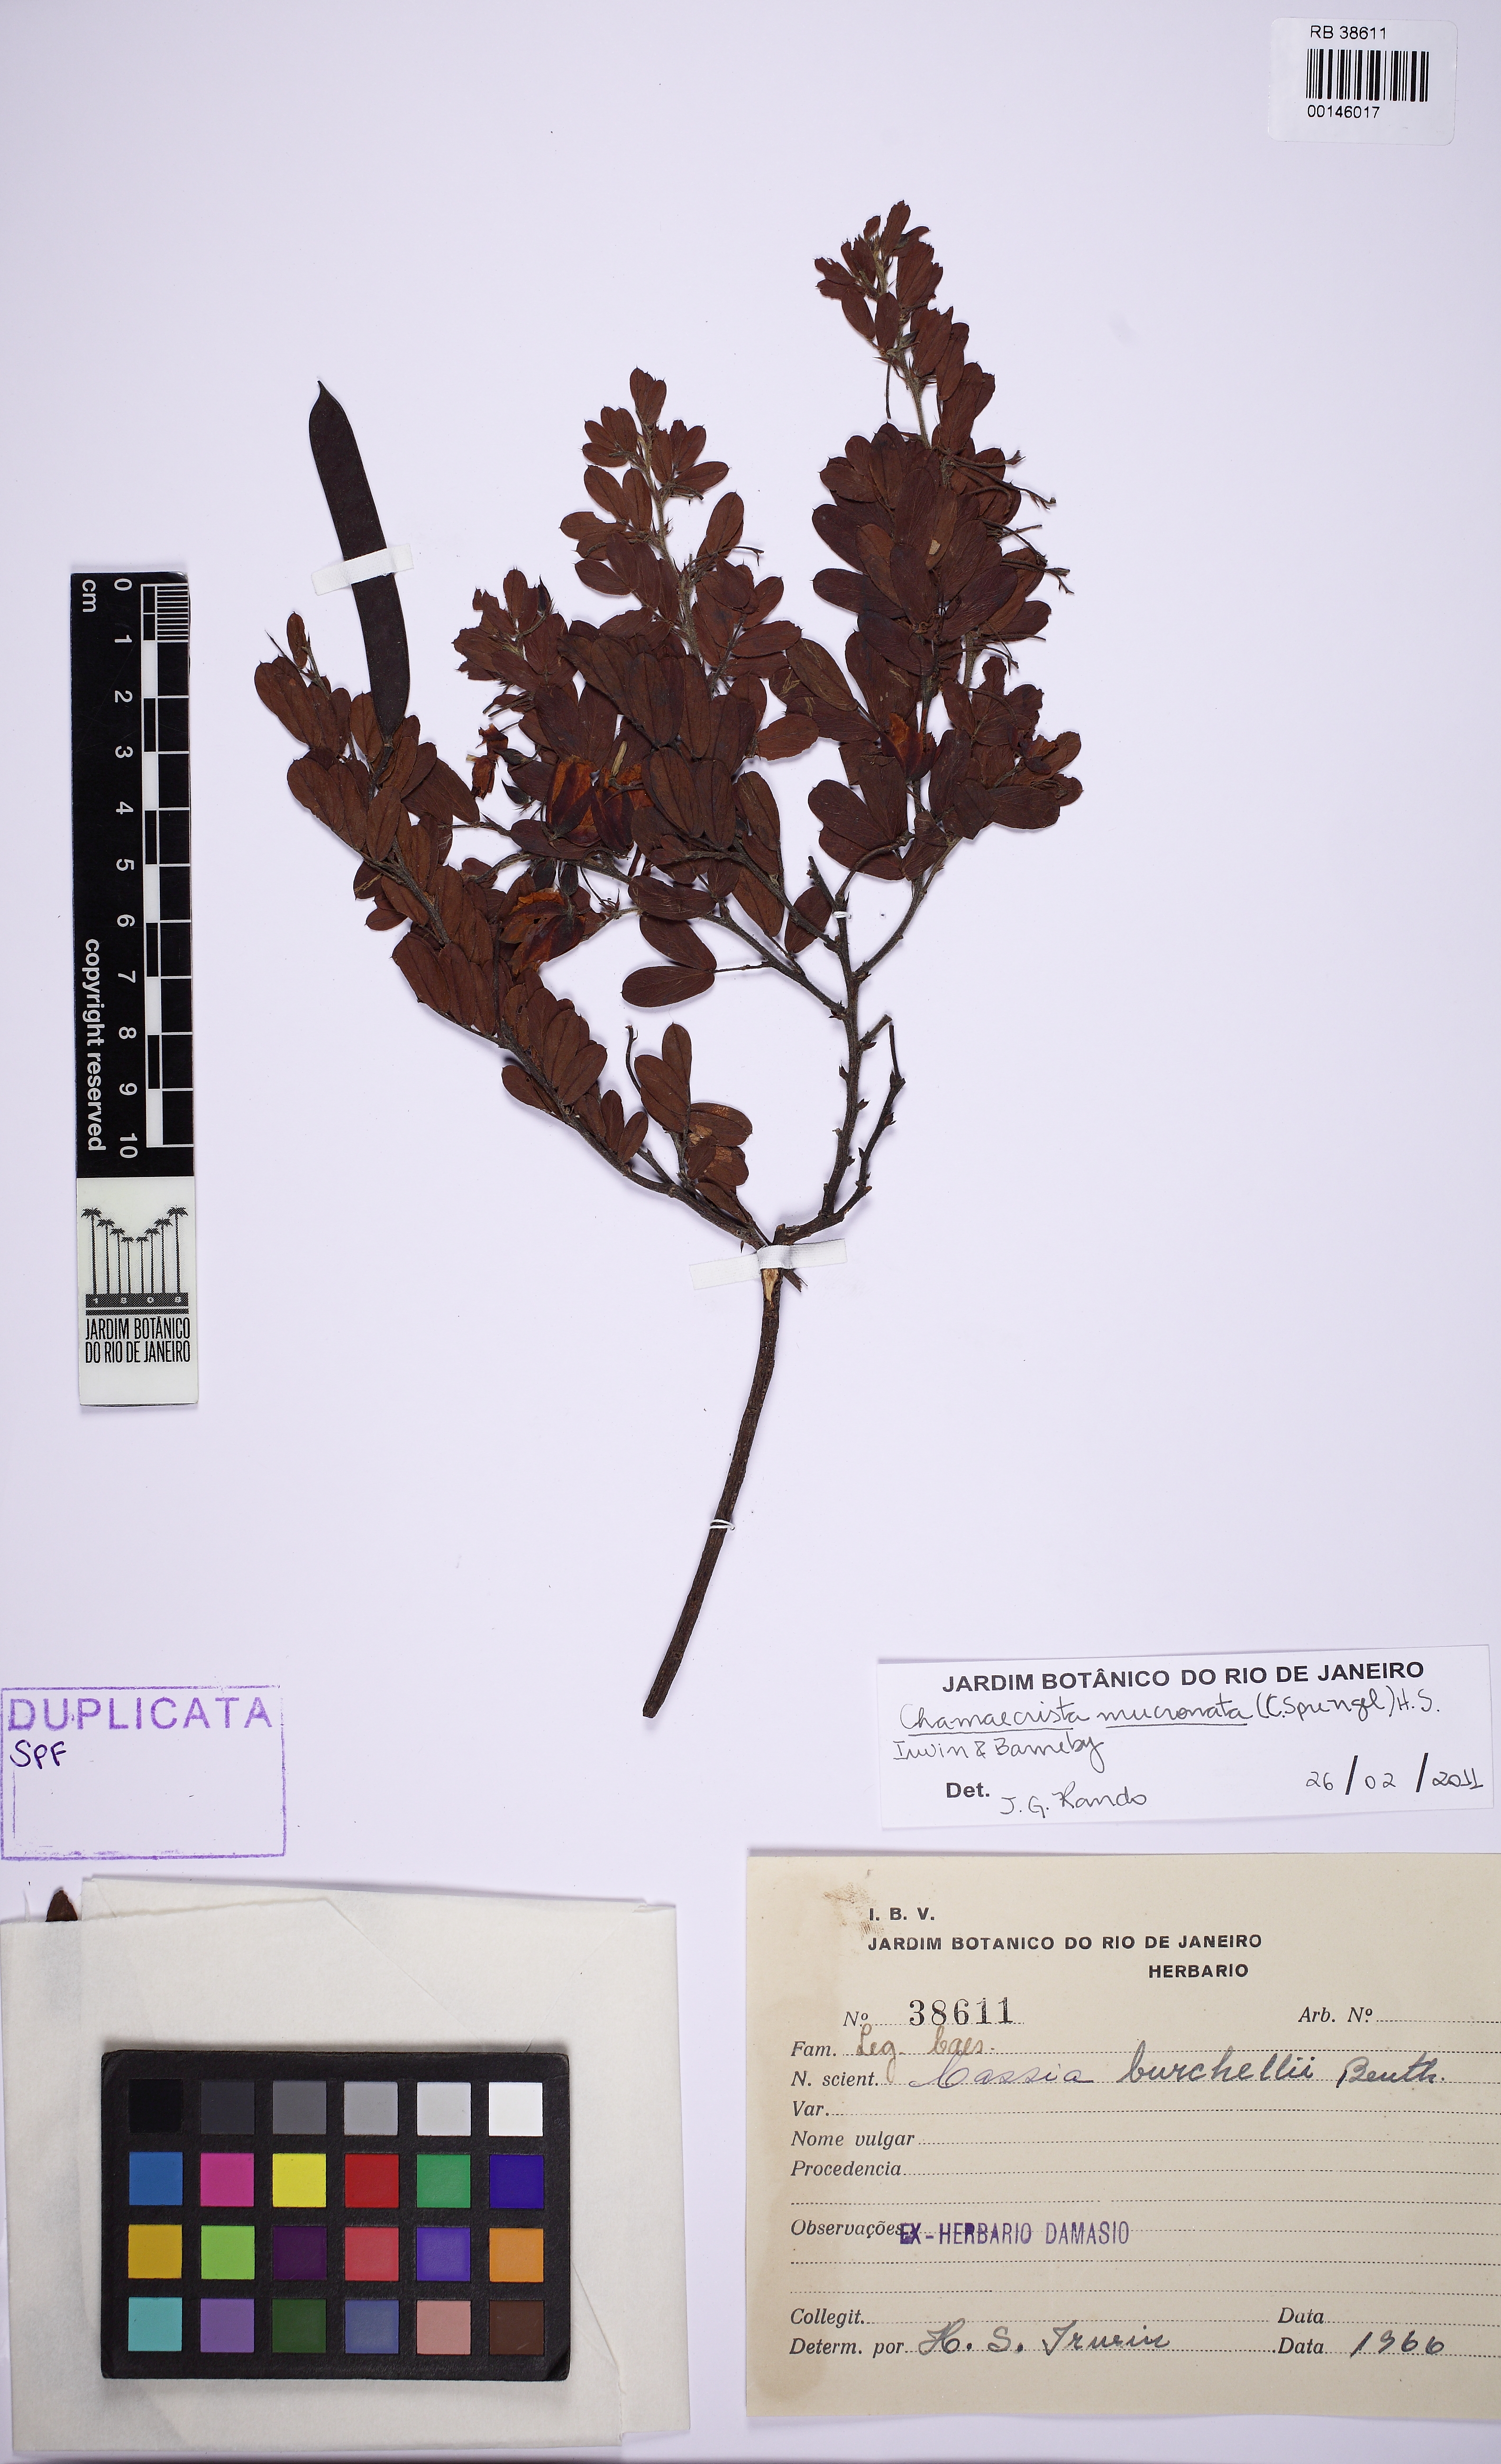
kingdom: Plantae
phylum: Tracheophyta
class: Magnoliopsida
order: Fabales
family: Fabaceae
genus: Chamaecrista
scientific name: Chamaecrista mucronata
